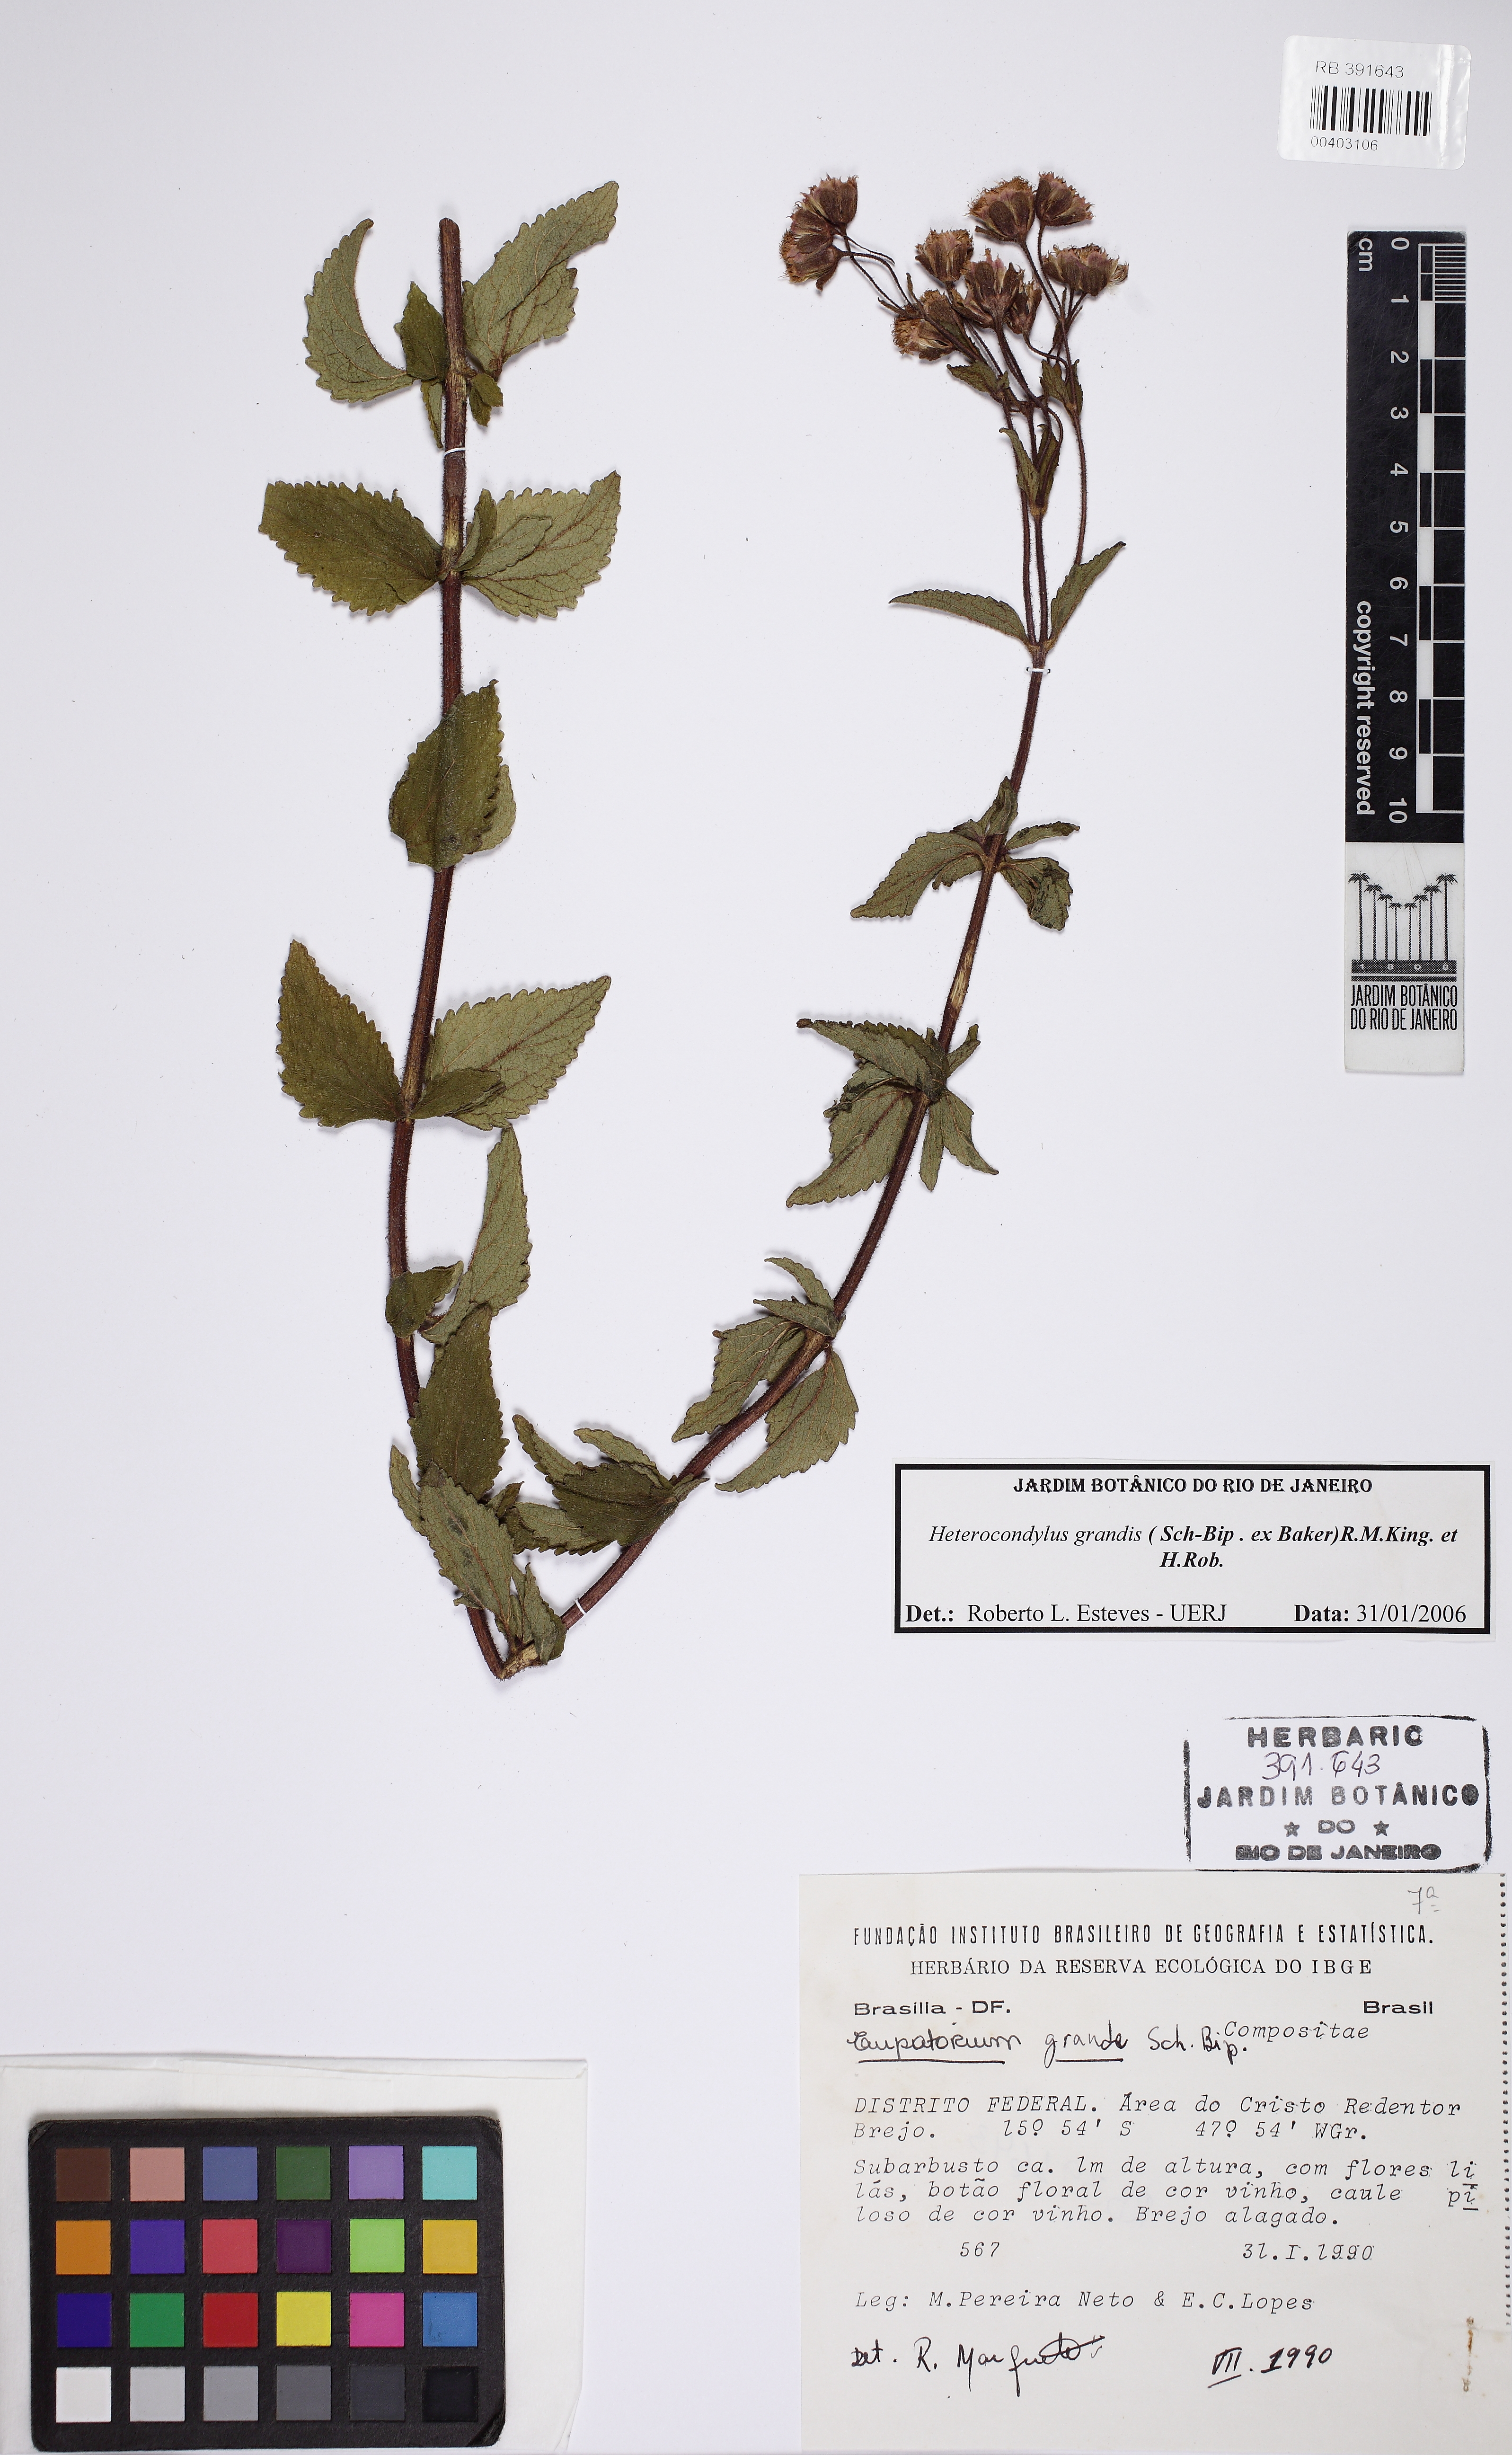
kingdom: Plantae
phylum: Tracheophyta
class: Magnoliopsida
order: Asterales
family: Asteraceae
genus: Heterocondylus
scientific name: Heterocondylus grandis
